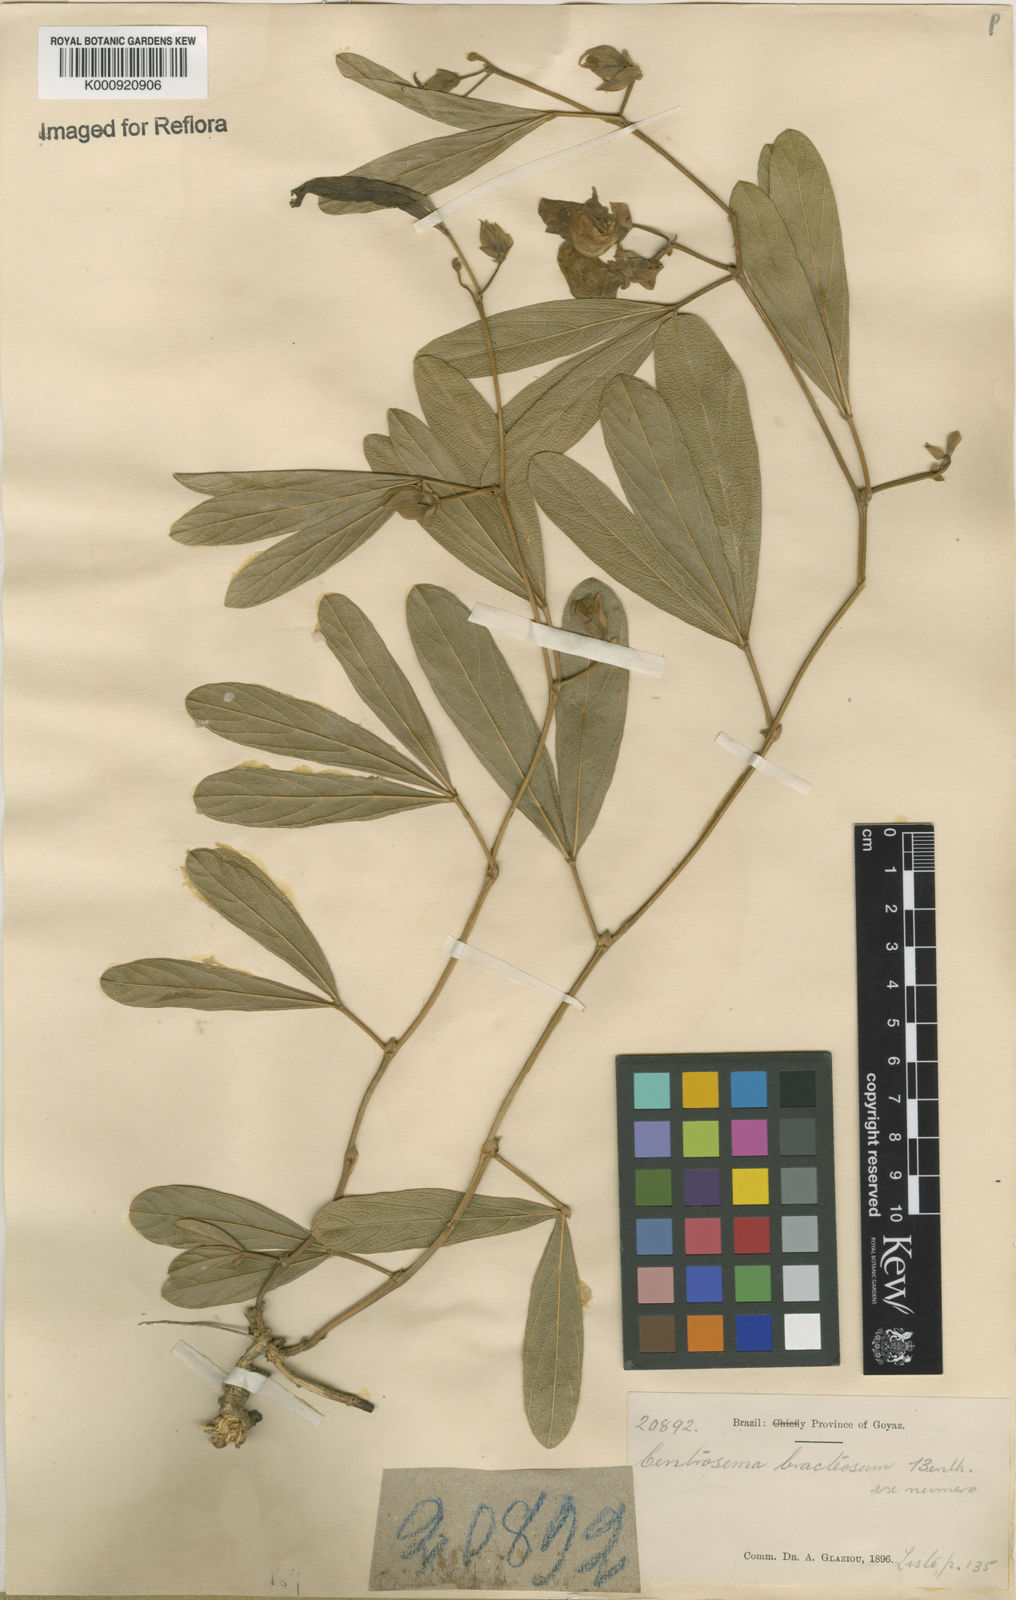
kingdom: Plantae
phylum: Tracheophyta
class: Magnoliopsida
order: Fabales
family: Fabaceae
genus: Centrosema
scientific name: Centrosema bracteosum
